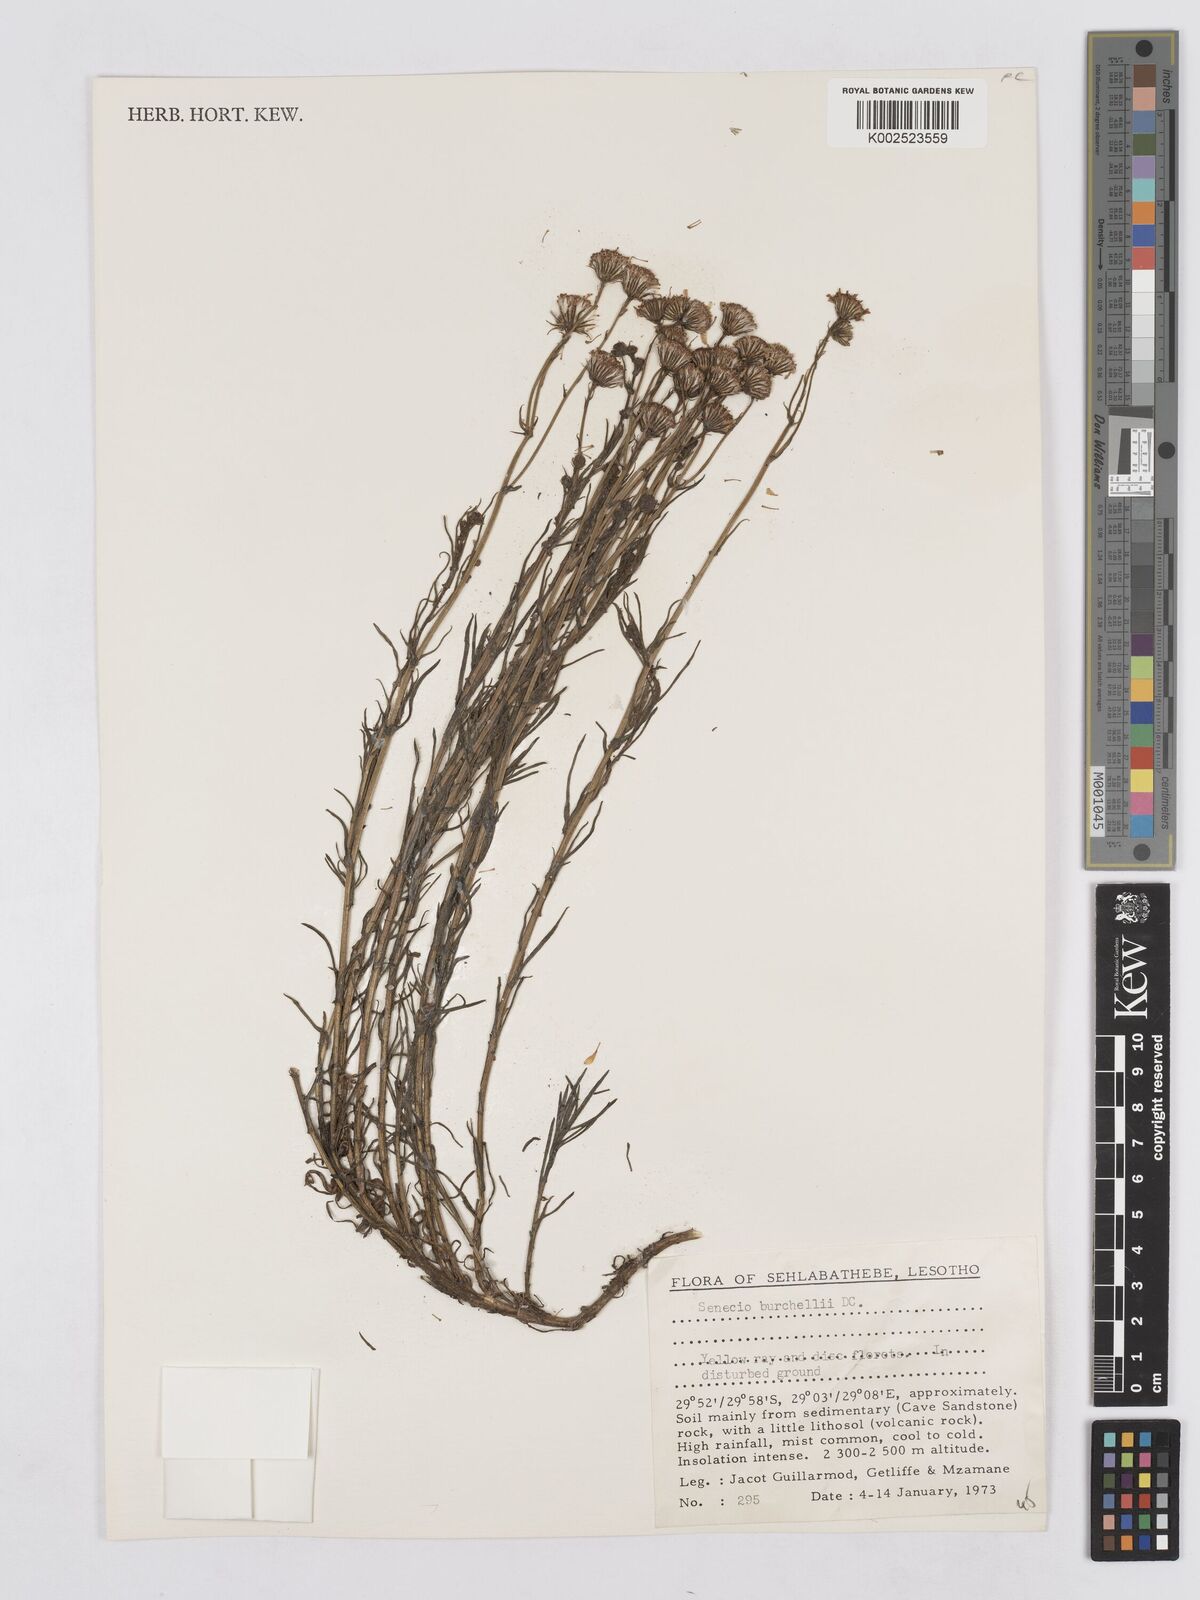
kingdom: Plantae
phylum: Tracheophyta
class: Magnoliopsida
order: Asterales
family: Asteraceae
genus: Senecio
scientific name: Senecio inaequidens
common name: Narrow-leaved ragwort
